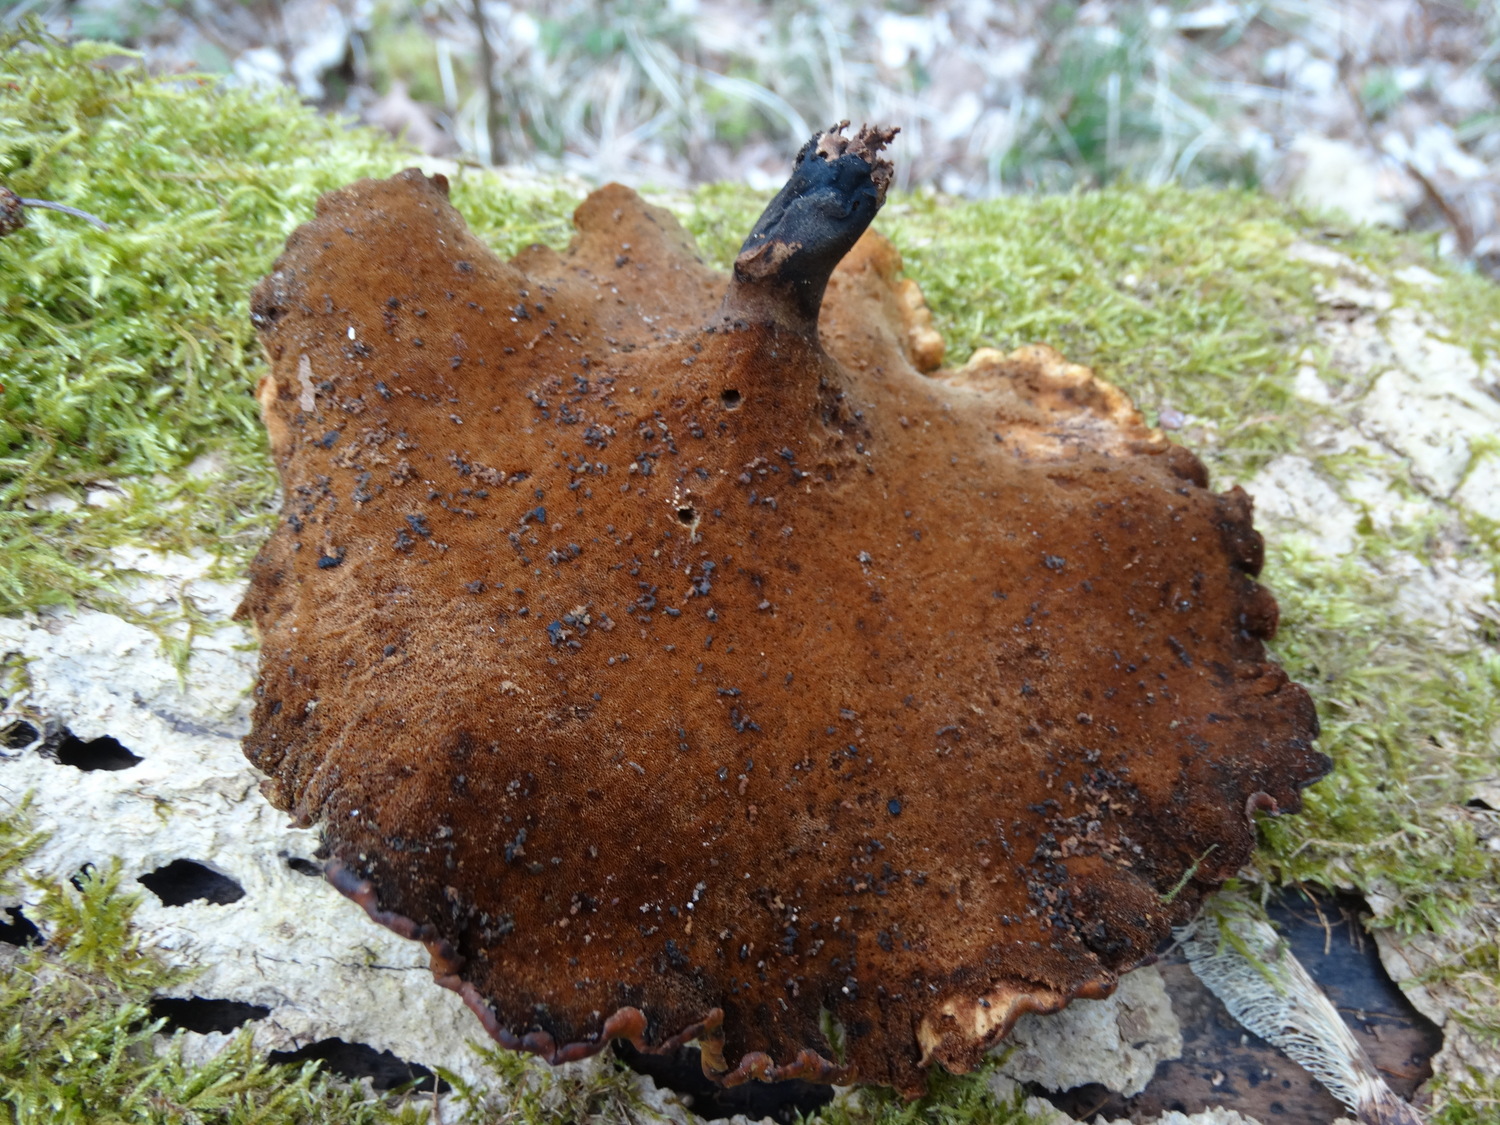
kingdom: Fungi
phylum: Basidiomycota
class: Agaricomycetes
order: Polyporales
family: Polyporaceae
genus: Cerioporus
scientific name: Cerioporus varius
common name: foranderlig stilkporesvamp
